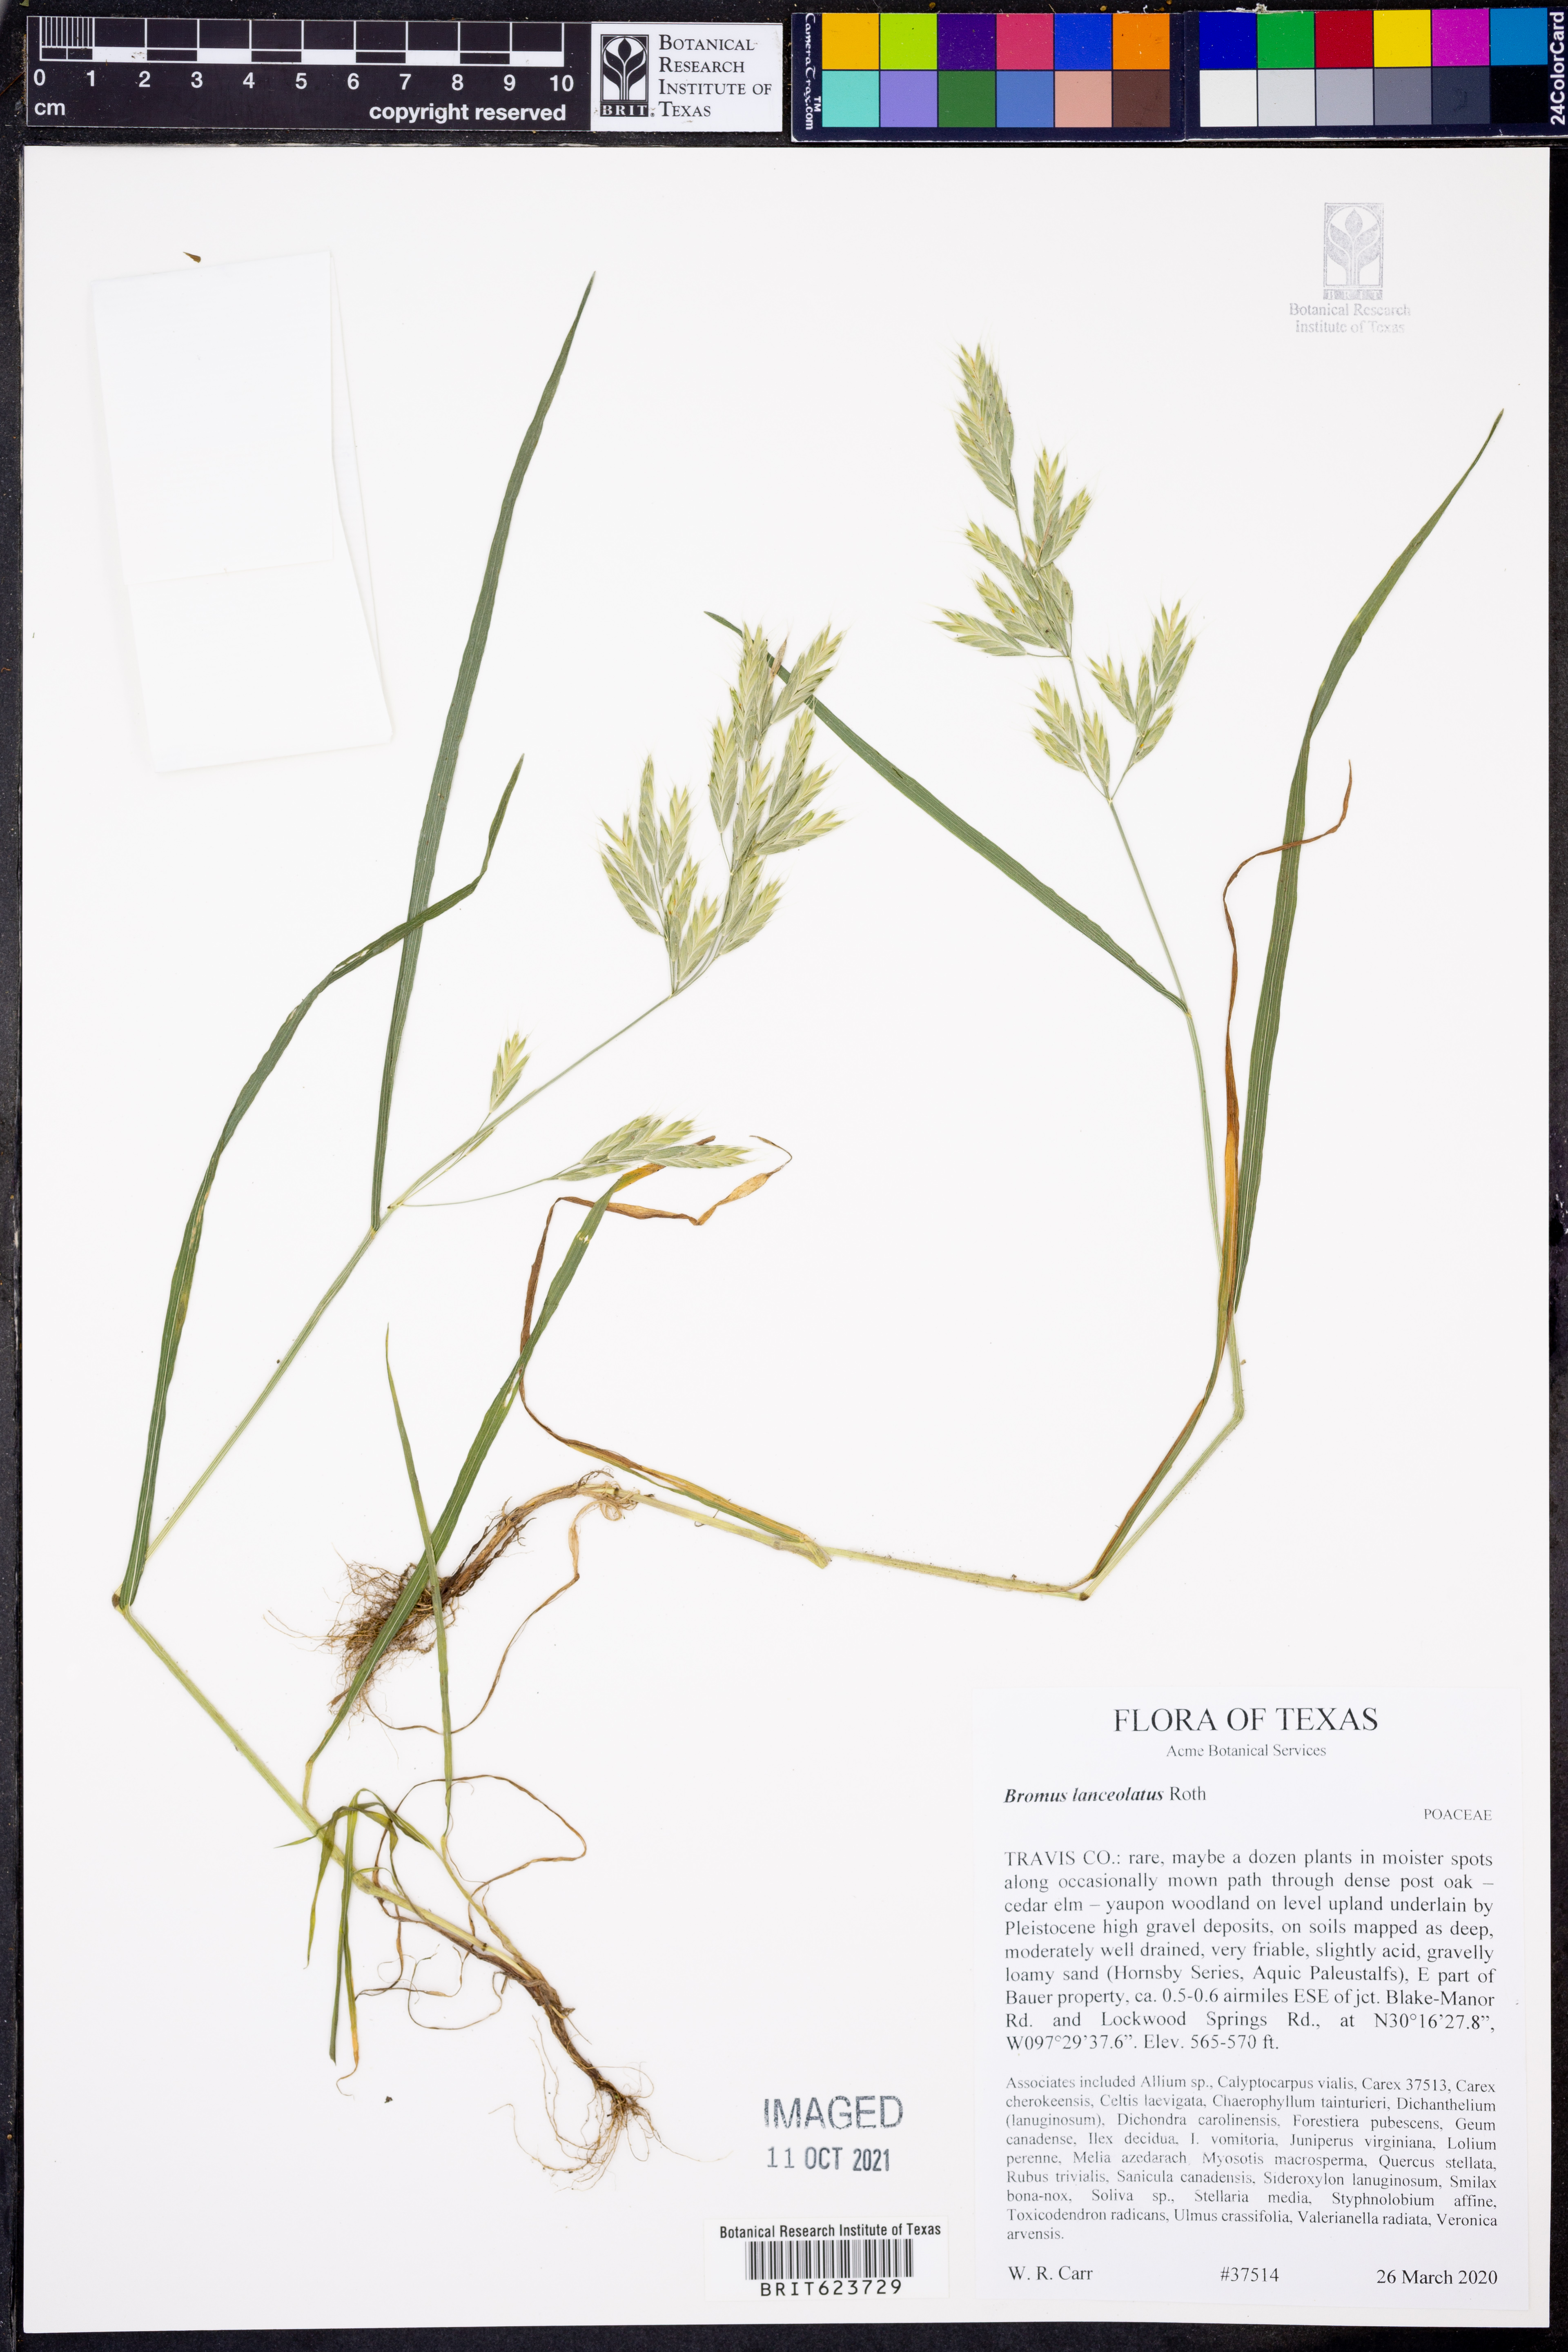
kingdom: Plantae
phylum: Tracheophyta
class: Liliopsida
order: Poales
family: Poaceae
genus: Bromus
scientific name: Bromus lanceolatus
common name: Mediterranean brome
